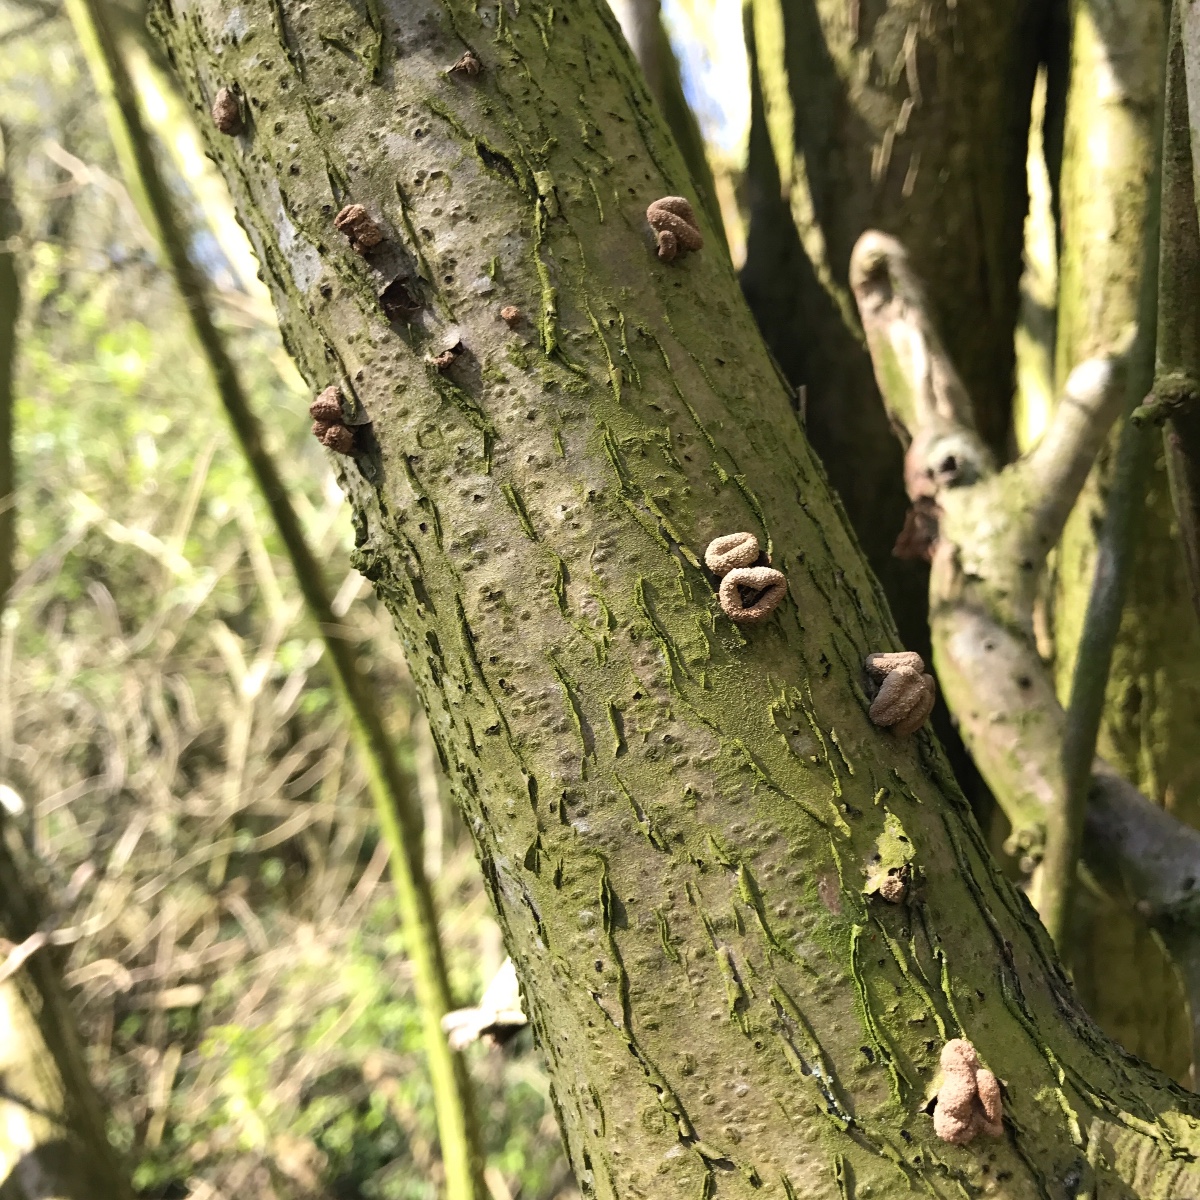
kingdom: Fungi
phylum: Ascomycota
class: Leotiomycetes
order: Helotiales
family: Cenangiaceae
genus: Encoelia
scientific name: Encoelia furfuracea
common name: hassel-læderskive
